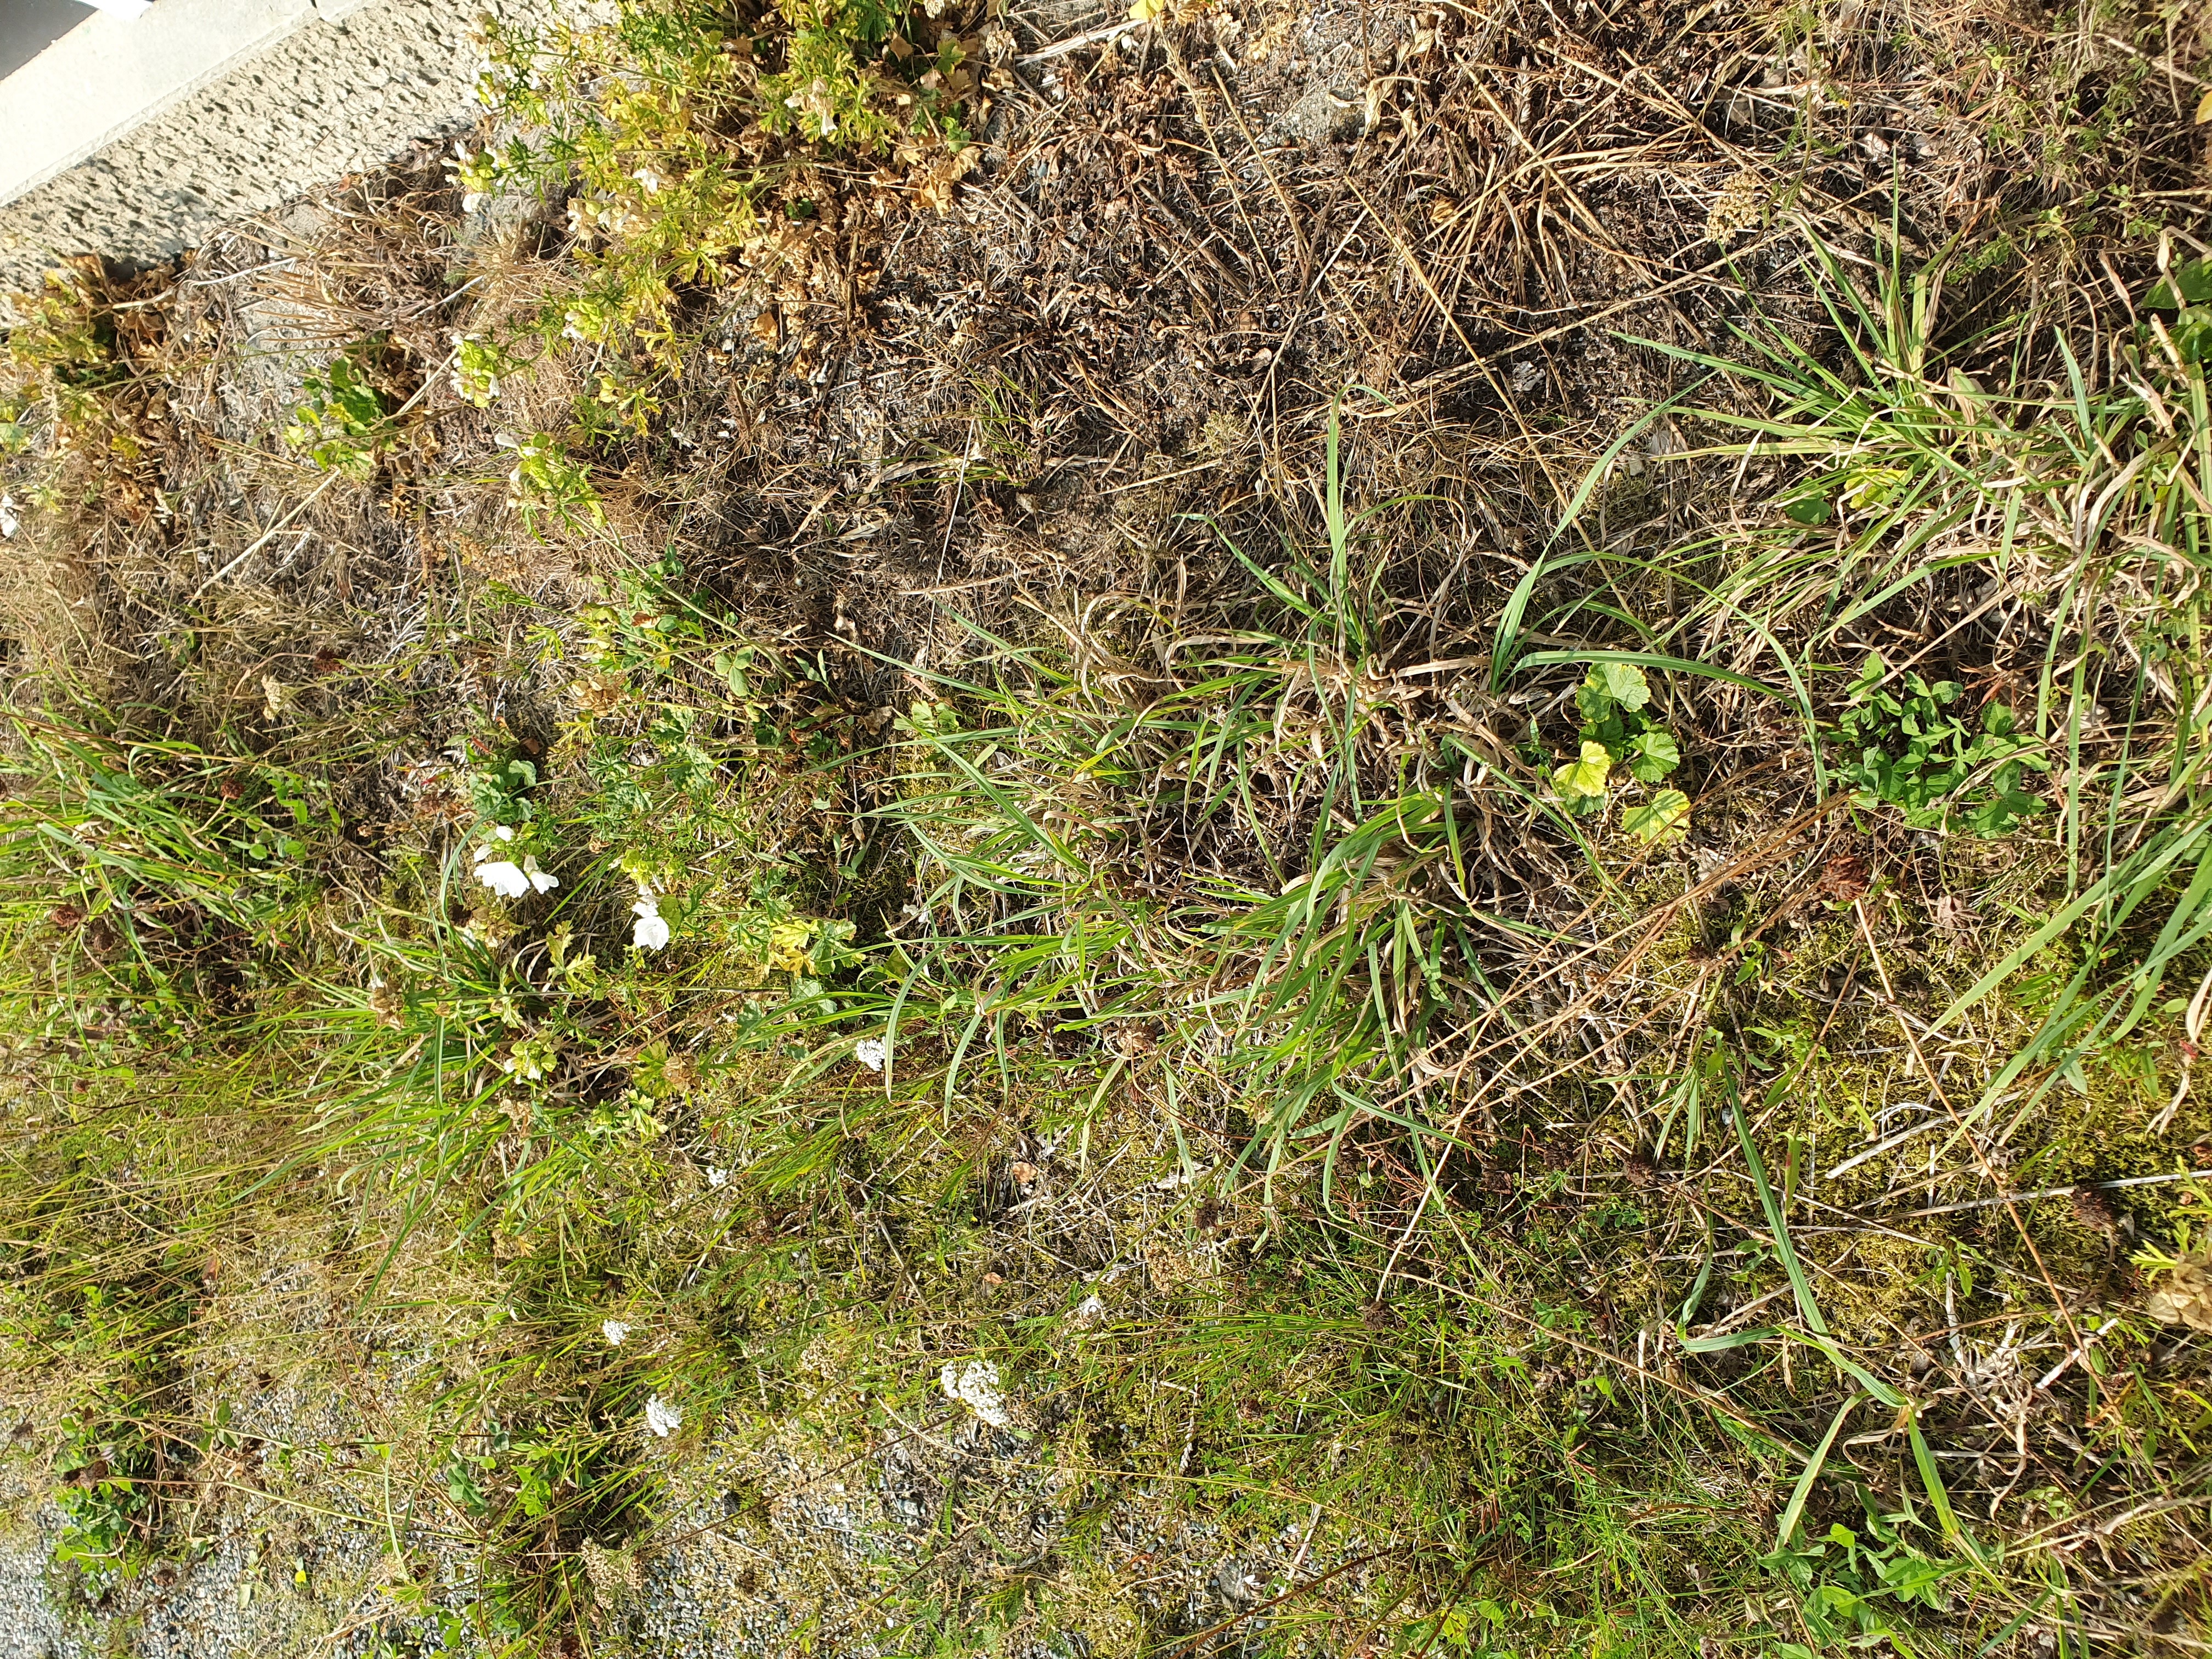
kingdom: Plantae
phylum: Tracheophyta
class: Magnoliopsida
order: Malvales
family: Malvaceae
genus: Malva
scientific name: Malva moschata
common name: Musk mallow
